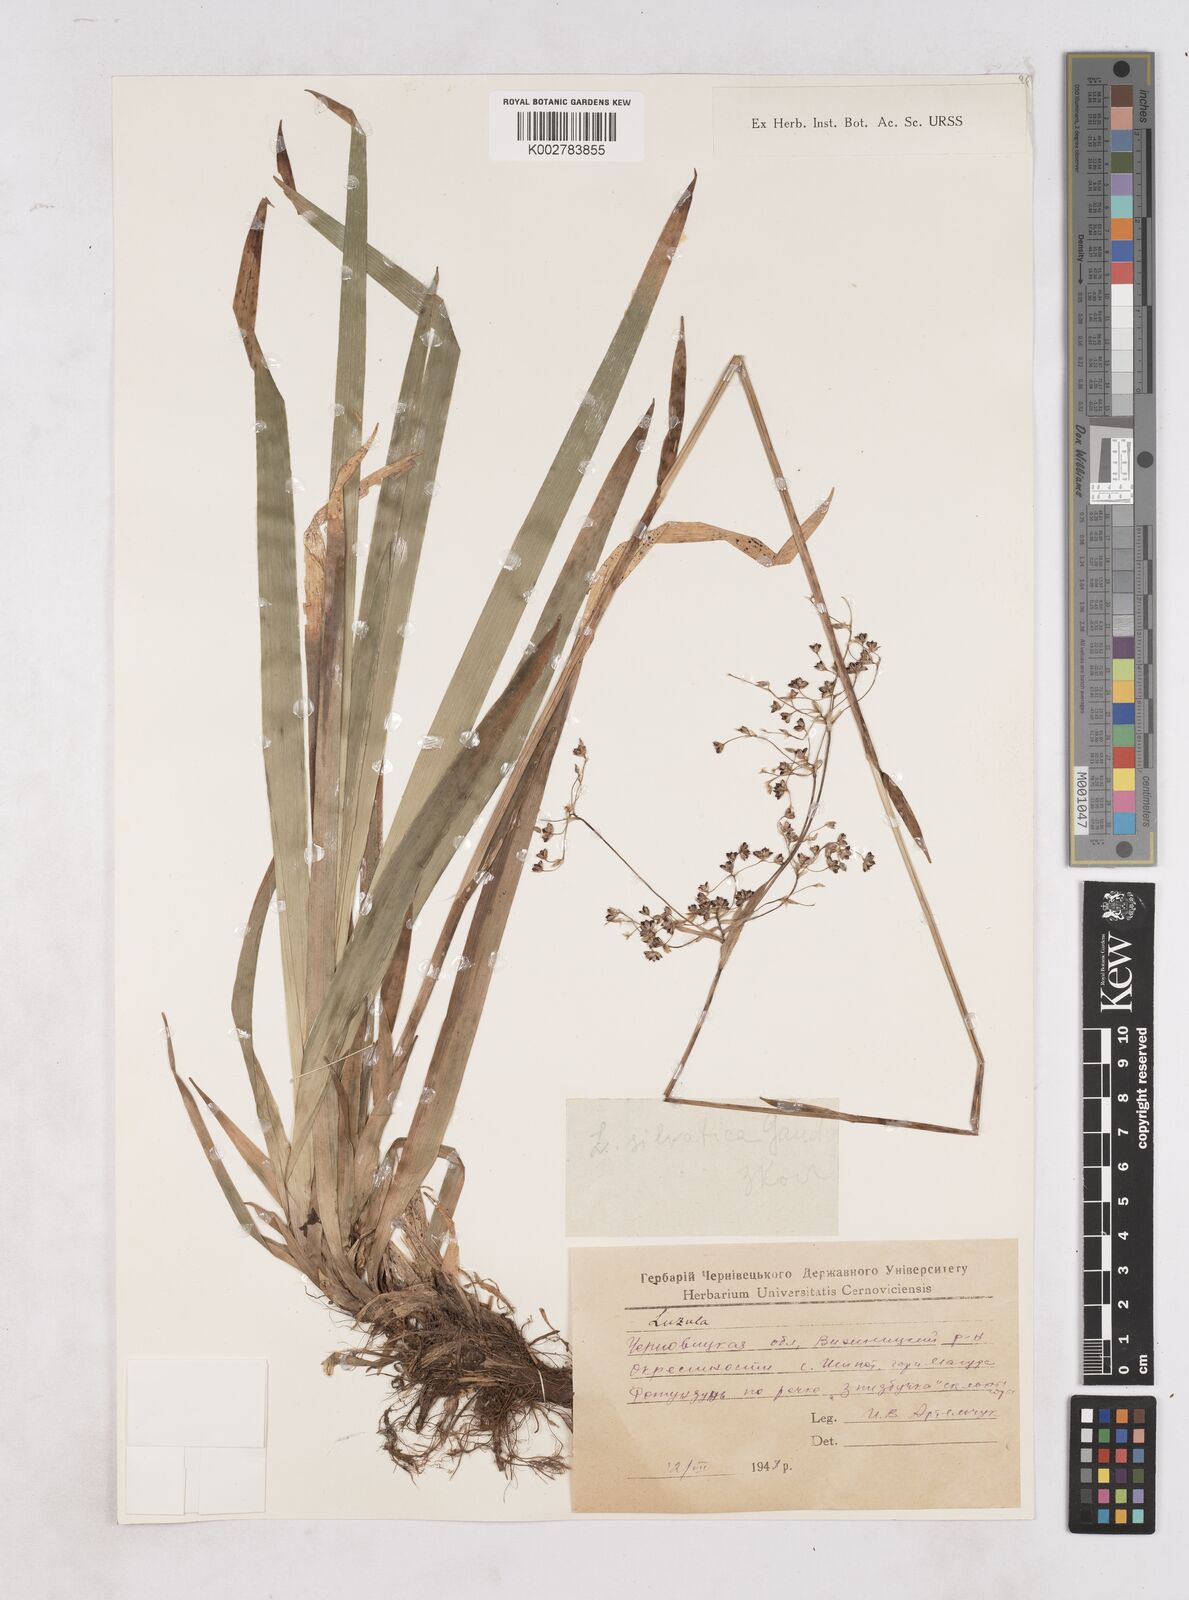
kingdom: Plantae
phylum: Tracheophyta
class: Liliopsida
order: Poales
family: Juncaceae
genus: Luzula
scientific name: Luzula
